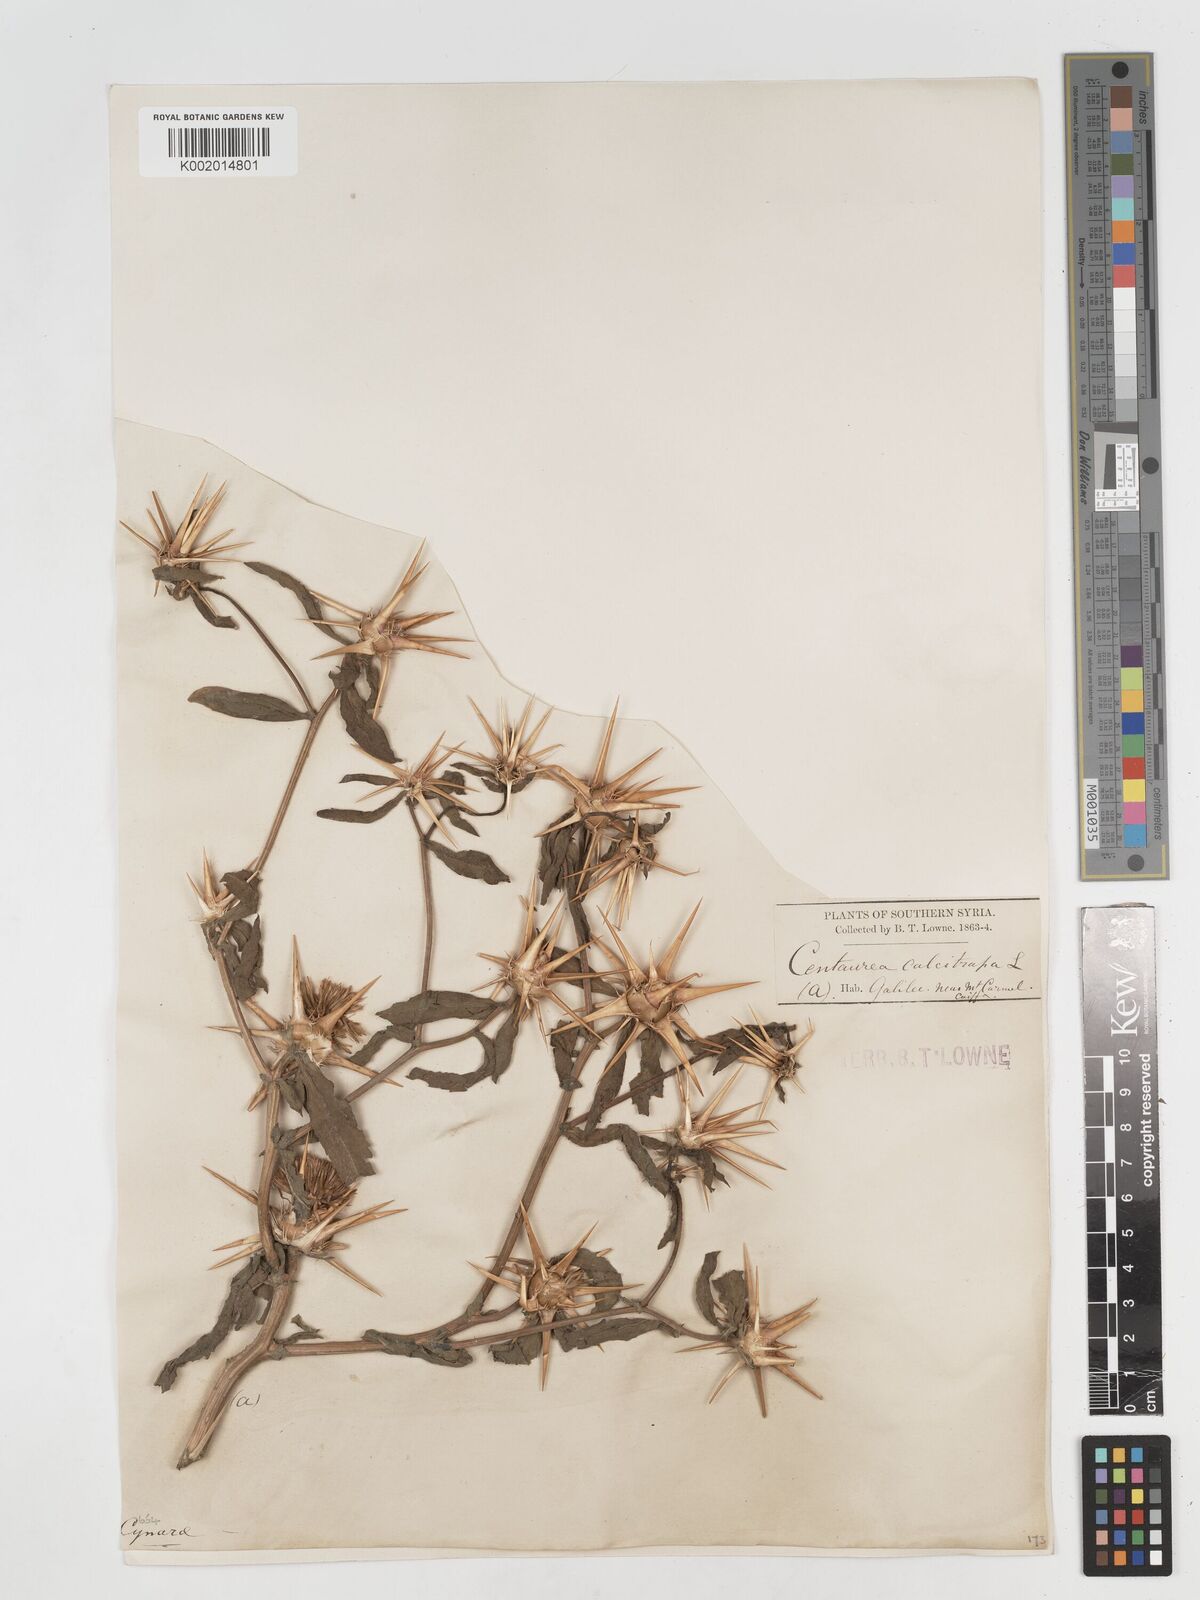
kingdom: Plantae
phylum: Tracheophyta
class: Magnoliopsida
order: Asterales
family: Asteraceae
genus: Centaurea
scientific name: Centaurea iberica
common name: Iberian knapweed
